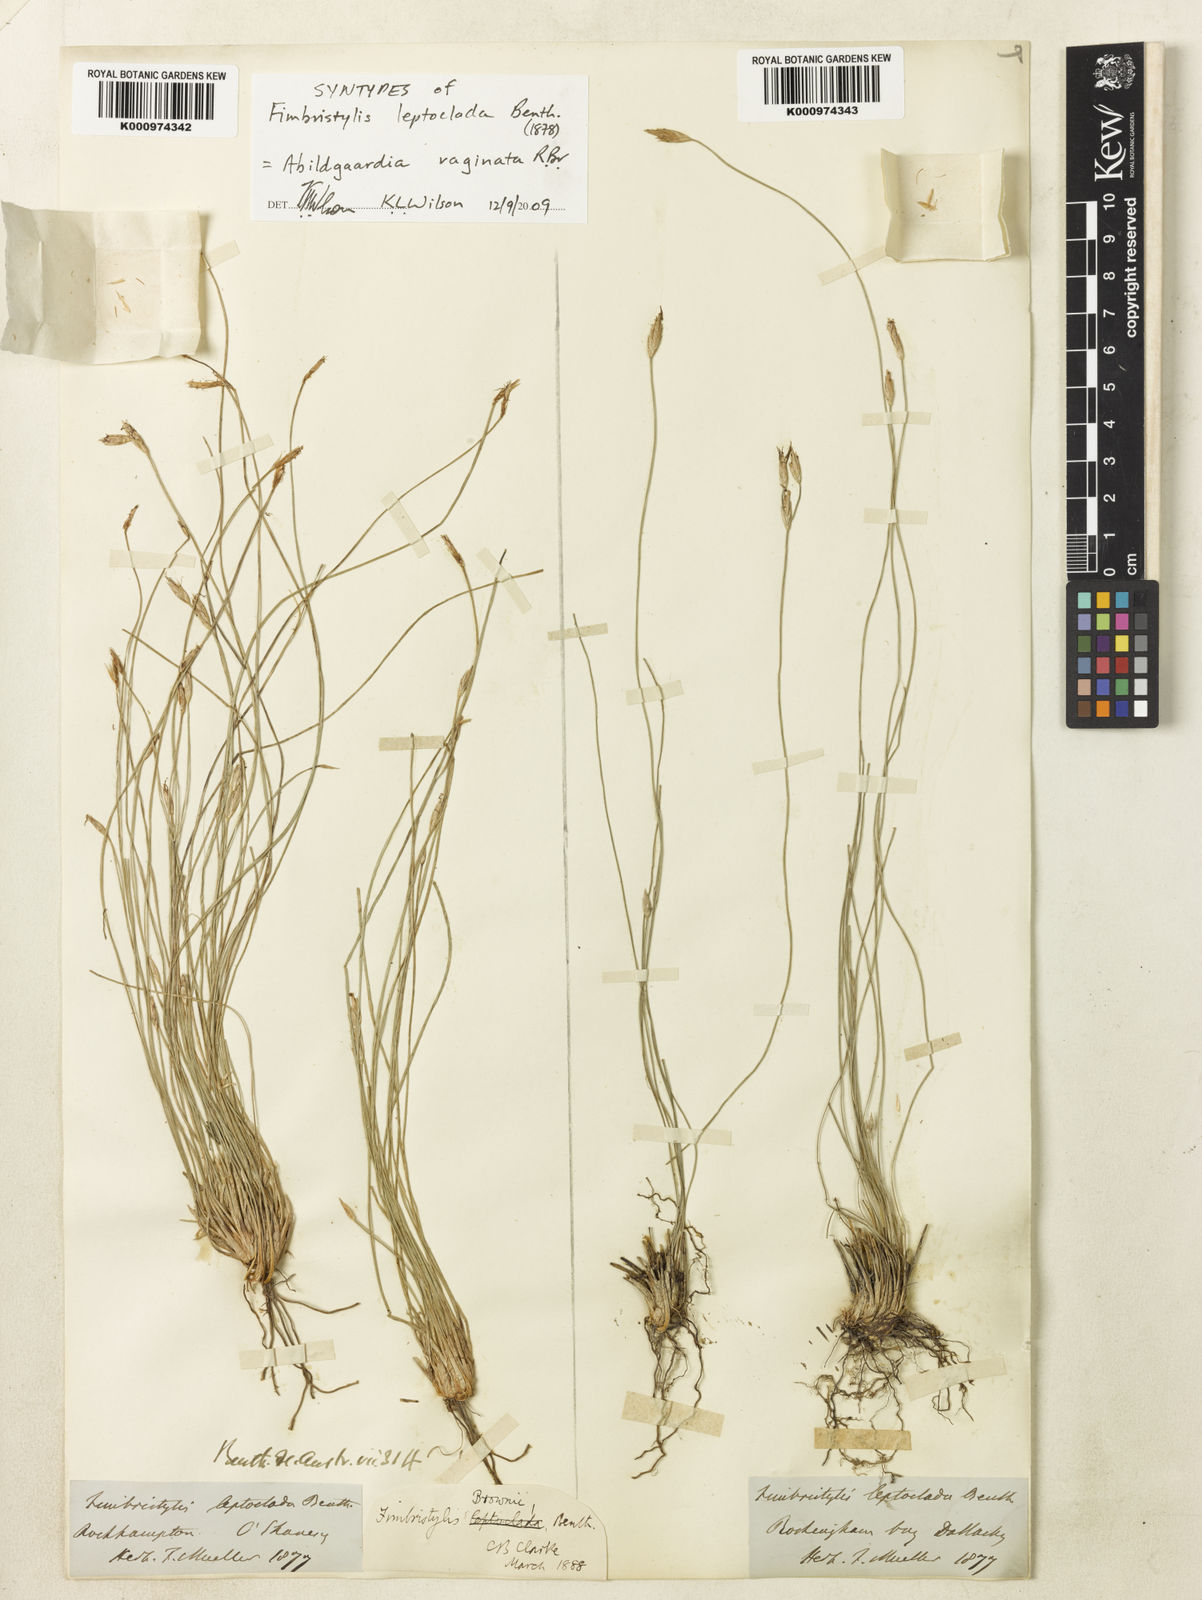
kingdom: Plantae
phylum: Tracheophyta
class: Liliopsida
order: Poales
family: Cyperaceae
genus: Fimbristylis
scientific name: Fimbristylis vaginata
